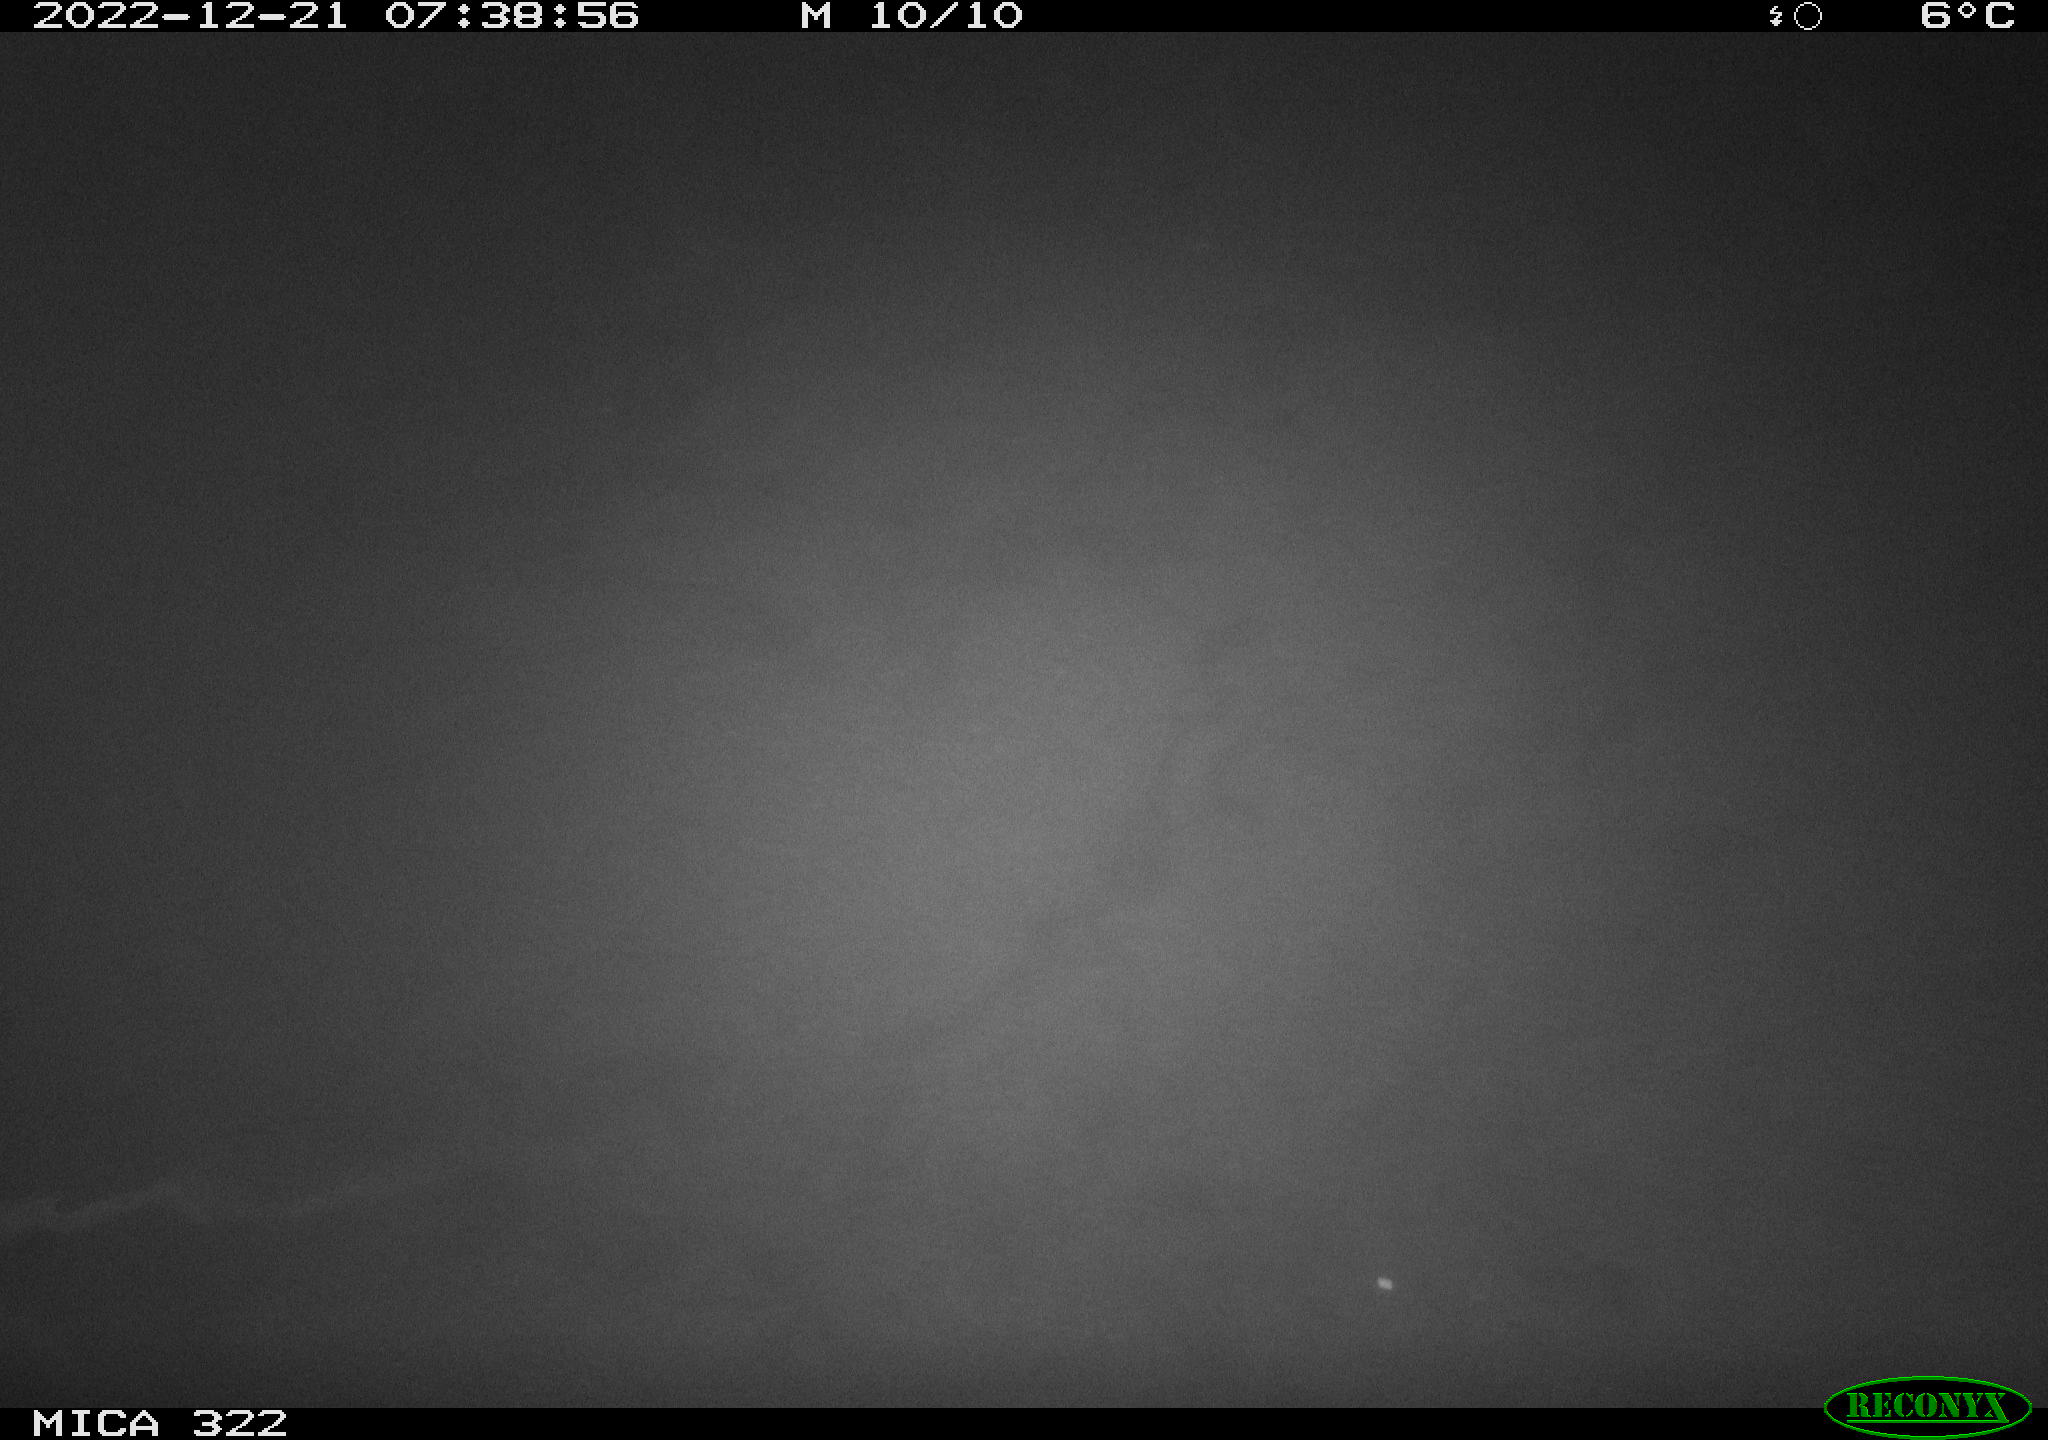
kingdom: Animalia
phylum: Chordata
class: Mammalia
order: Rodentia
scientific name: Rodentia
